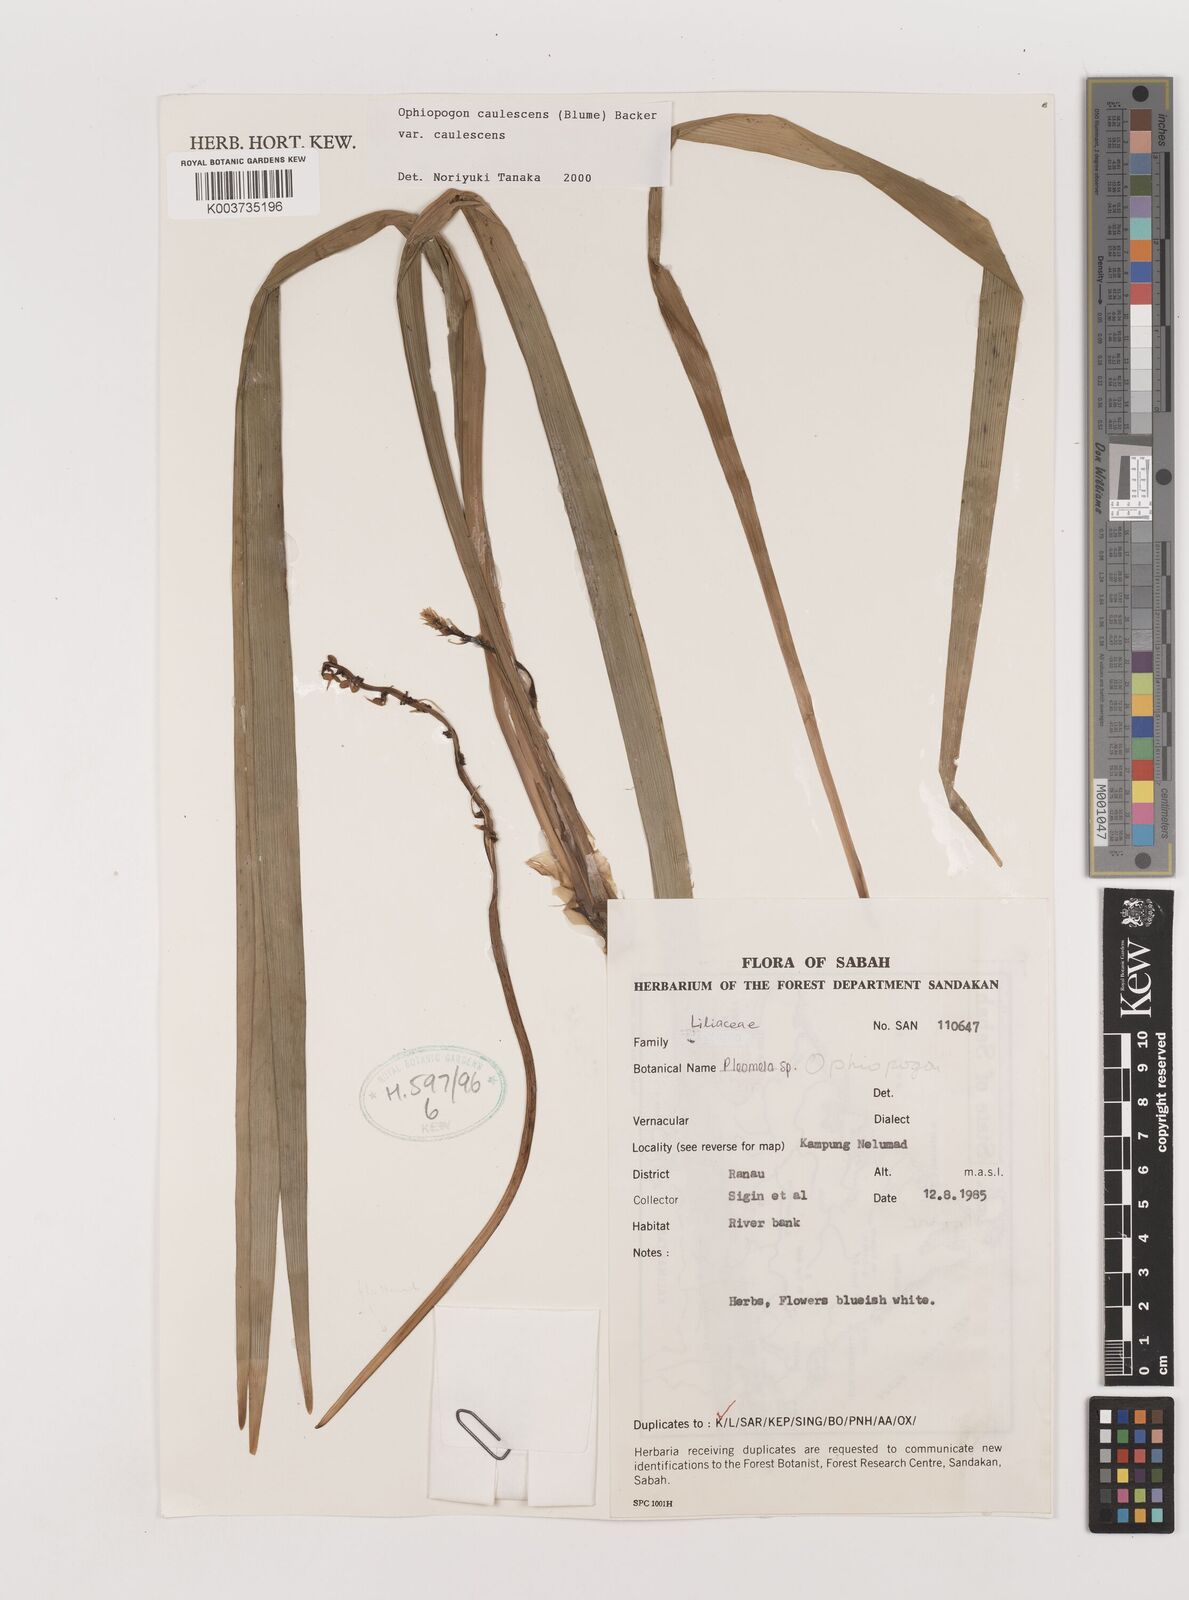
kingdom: Plantae
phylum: Tracheophyta
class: Liliopsida
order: Asparagales
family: Asparagaceae
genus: Ophiopogon
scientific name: Ophiopogon caulescens
